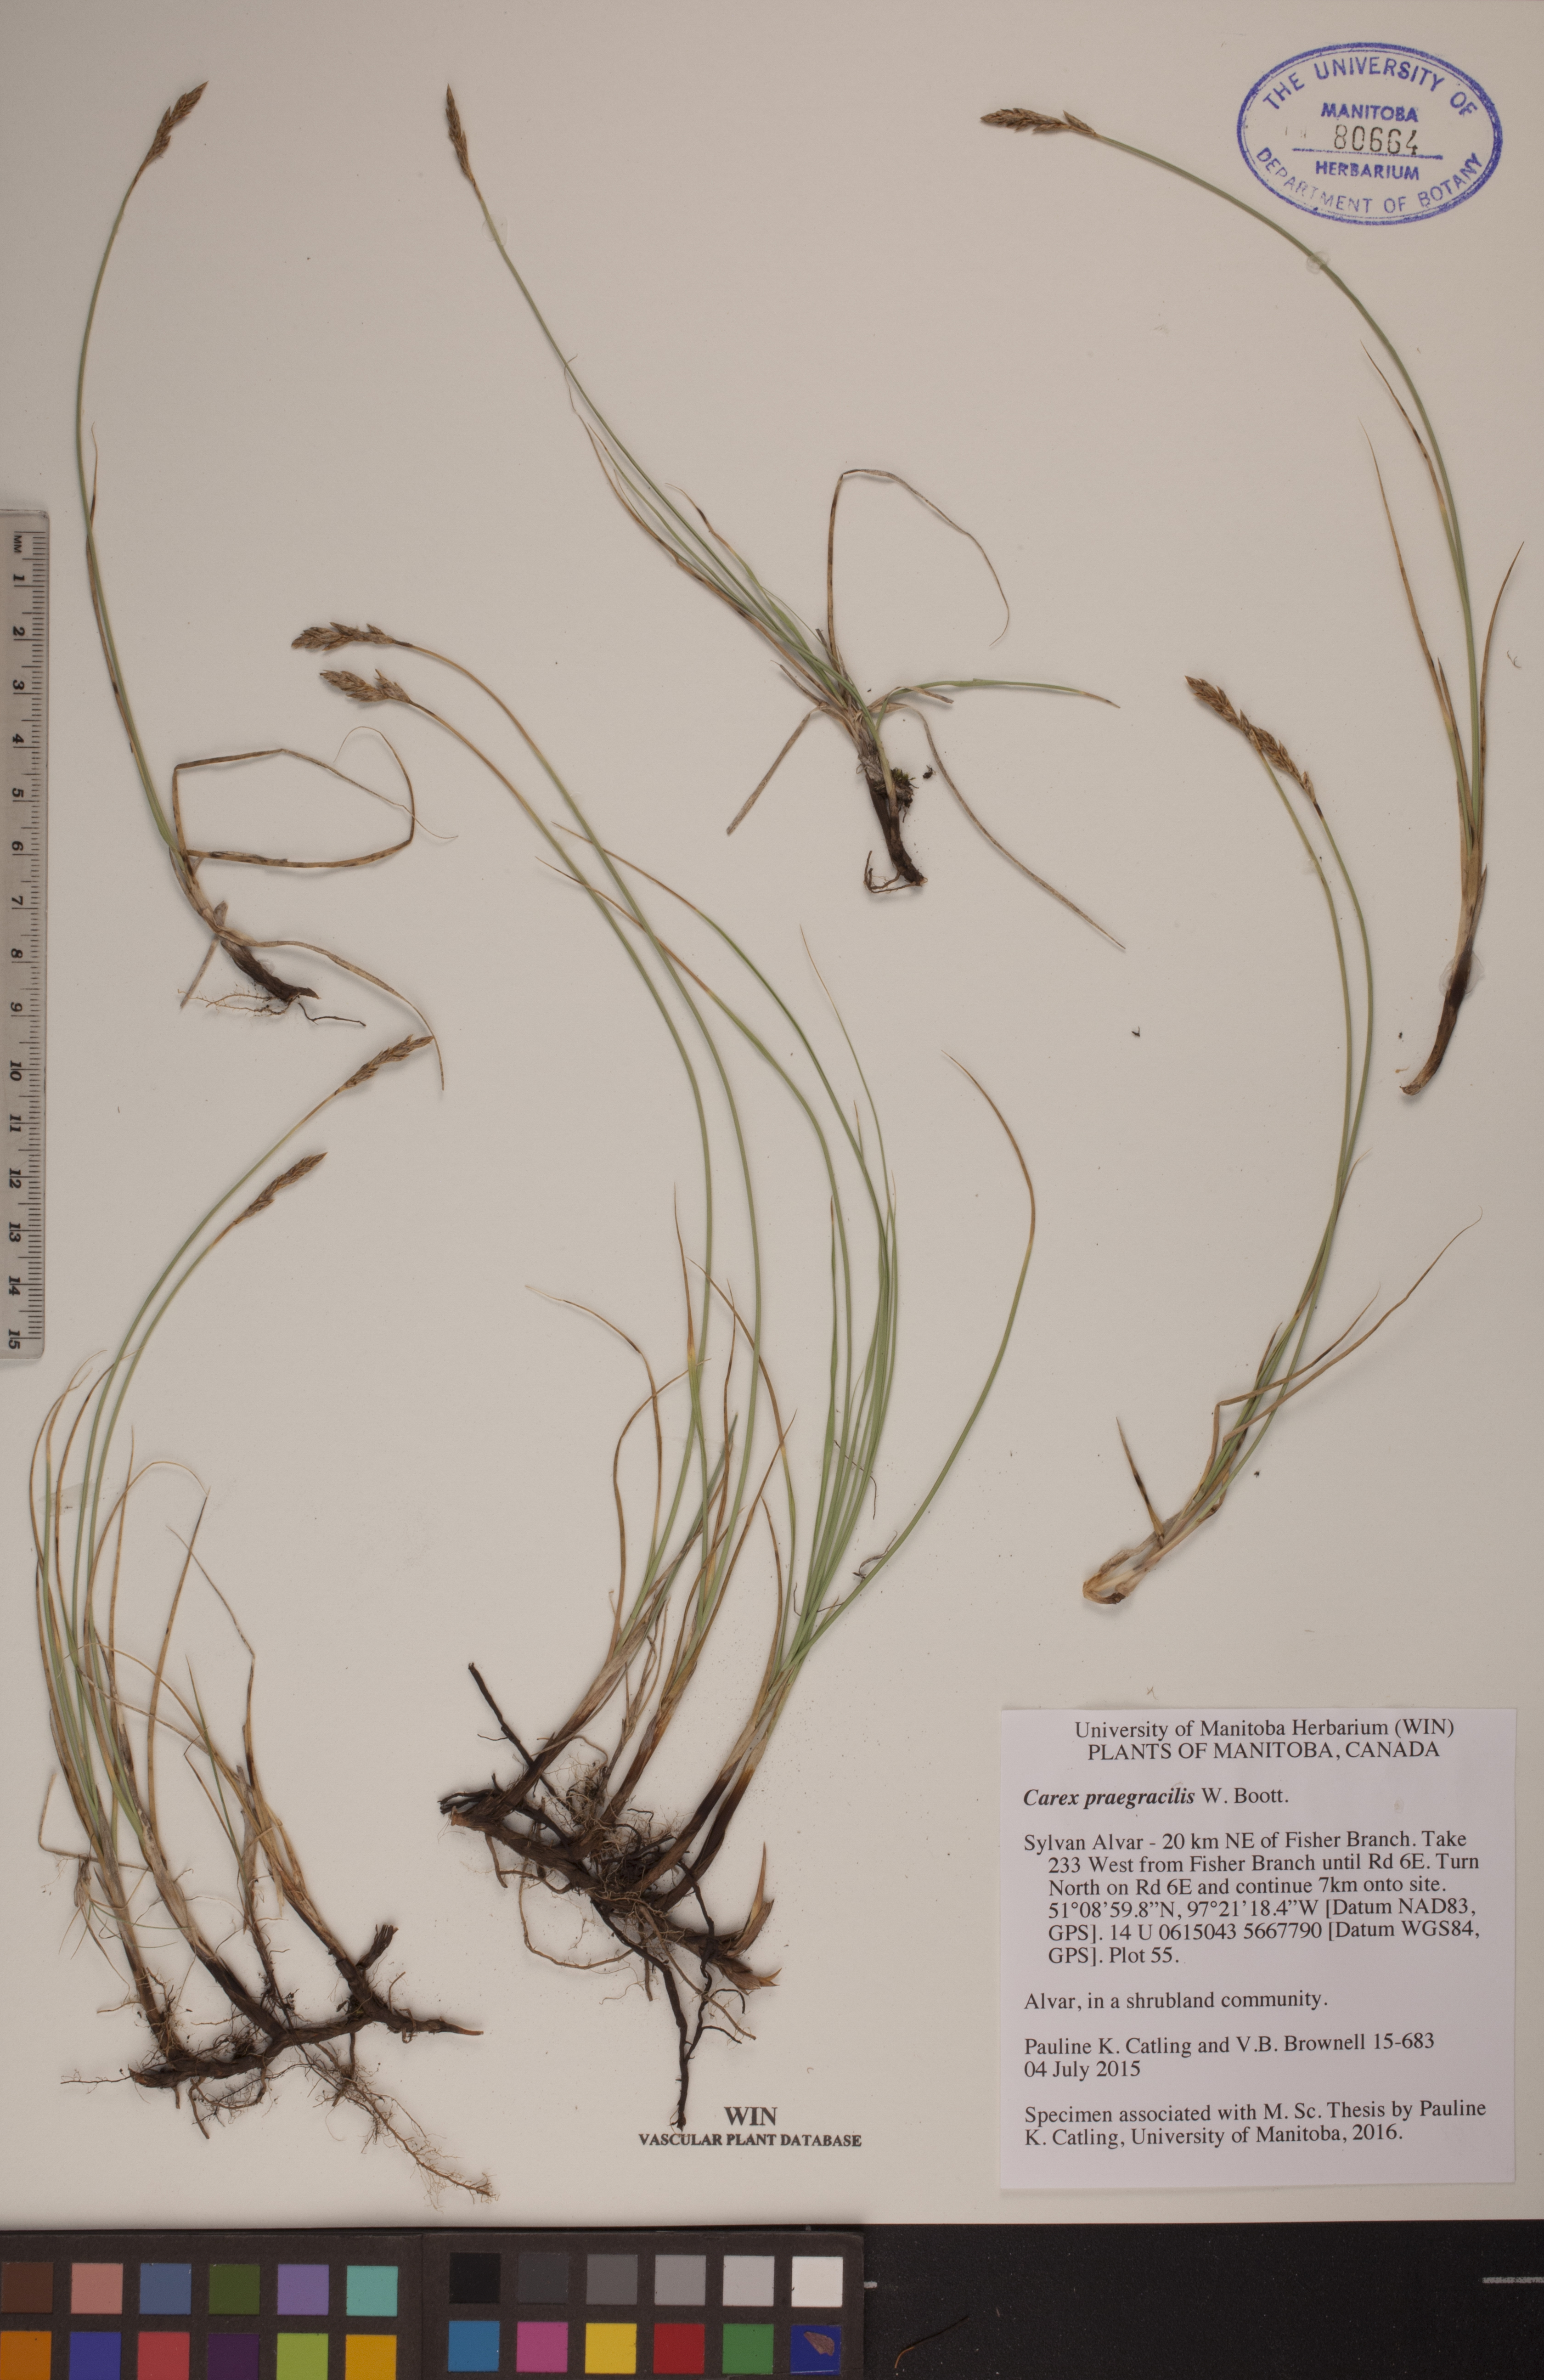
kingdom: Plantae
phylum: Tracheophyta
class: Liliopsida
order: Poales
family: Cyperaceae
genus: Carex
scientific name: Carex praegracilis
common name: Black creeper sedge
